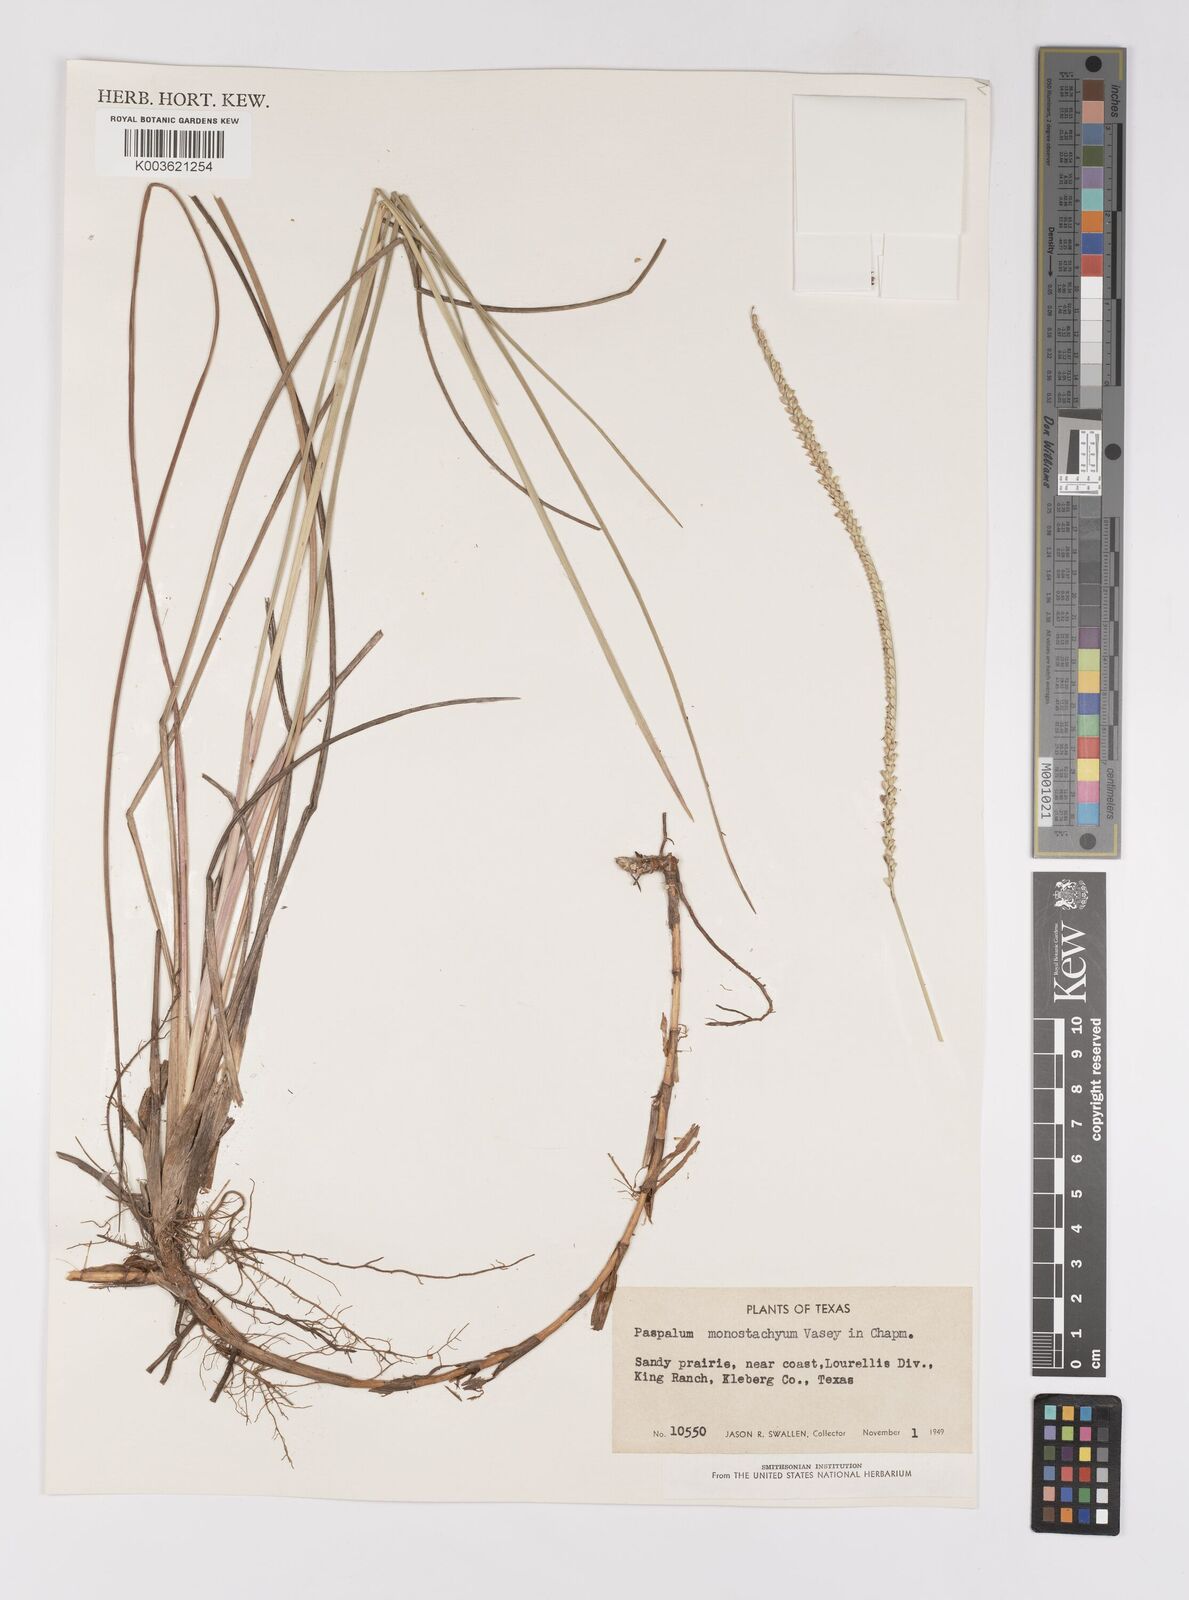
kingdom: Plantae
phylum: Tracheophyta
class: Liliopsida
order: Poales
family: Poaceae
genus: Paspalum
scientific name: Paspalum monostachyum
